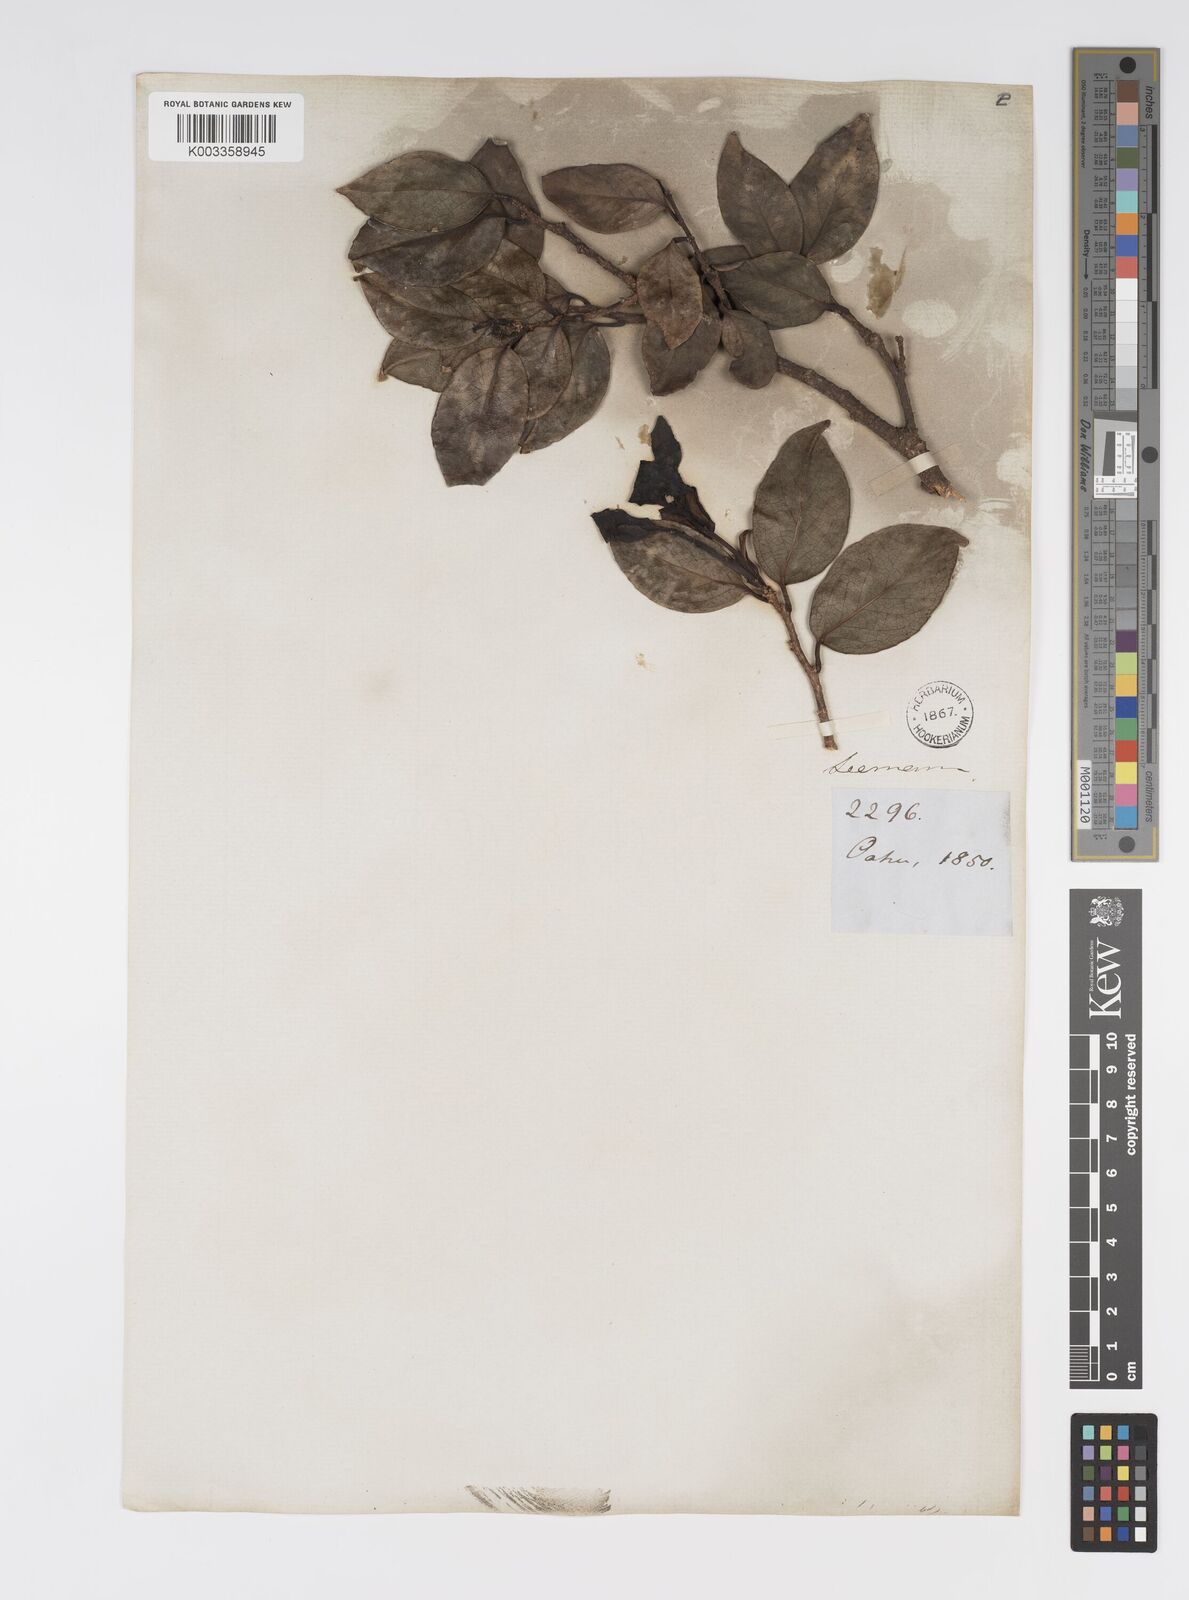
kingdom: Plantae
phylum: Tracheophyta
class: Magnoliopsida
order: Malpighiales
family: Salicaceae
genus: Xylosma
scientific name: Xylosma hawaiense
